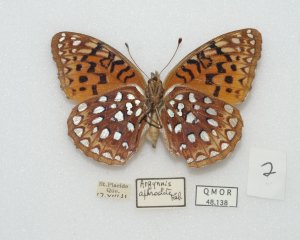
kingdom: Animalia
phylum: Arthropoda
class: Insecta
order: Lepidoptera
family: Nymphalidae
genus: Speyeria
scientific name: Speyeria aphrodite
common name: Aphrodite Fritillary
